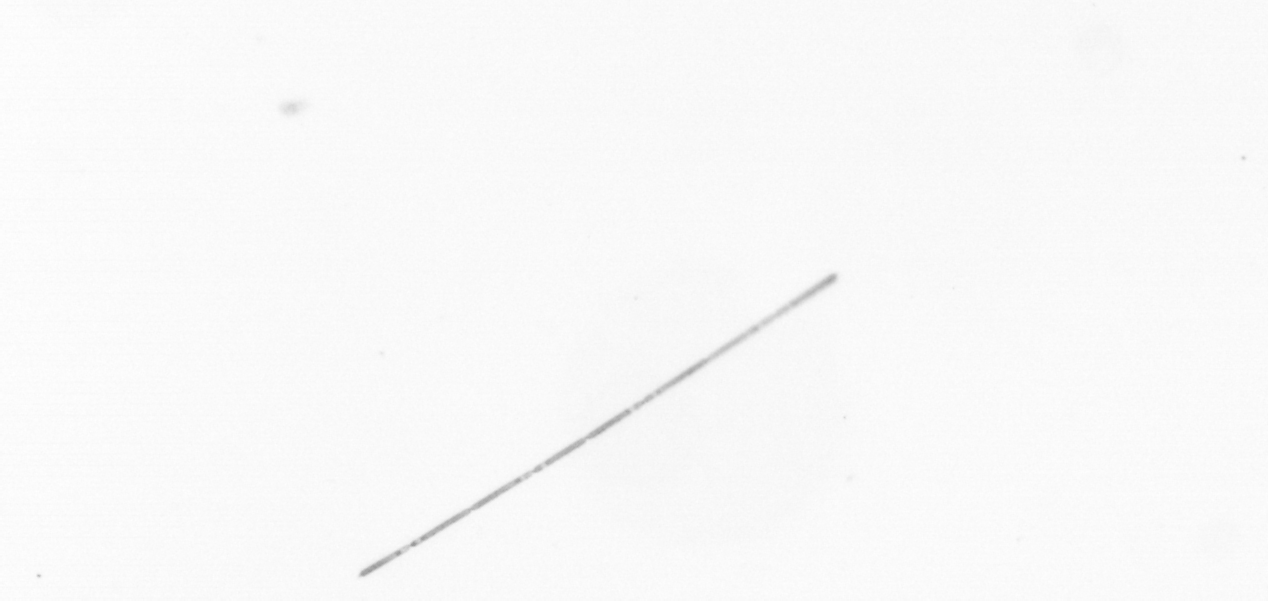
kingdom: Chromista
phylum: Ochrophyta
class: Bacillariophyceae
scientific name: Bacillariophyceae
